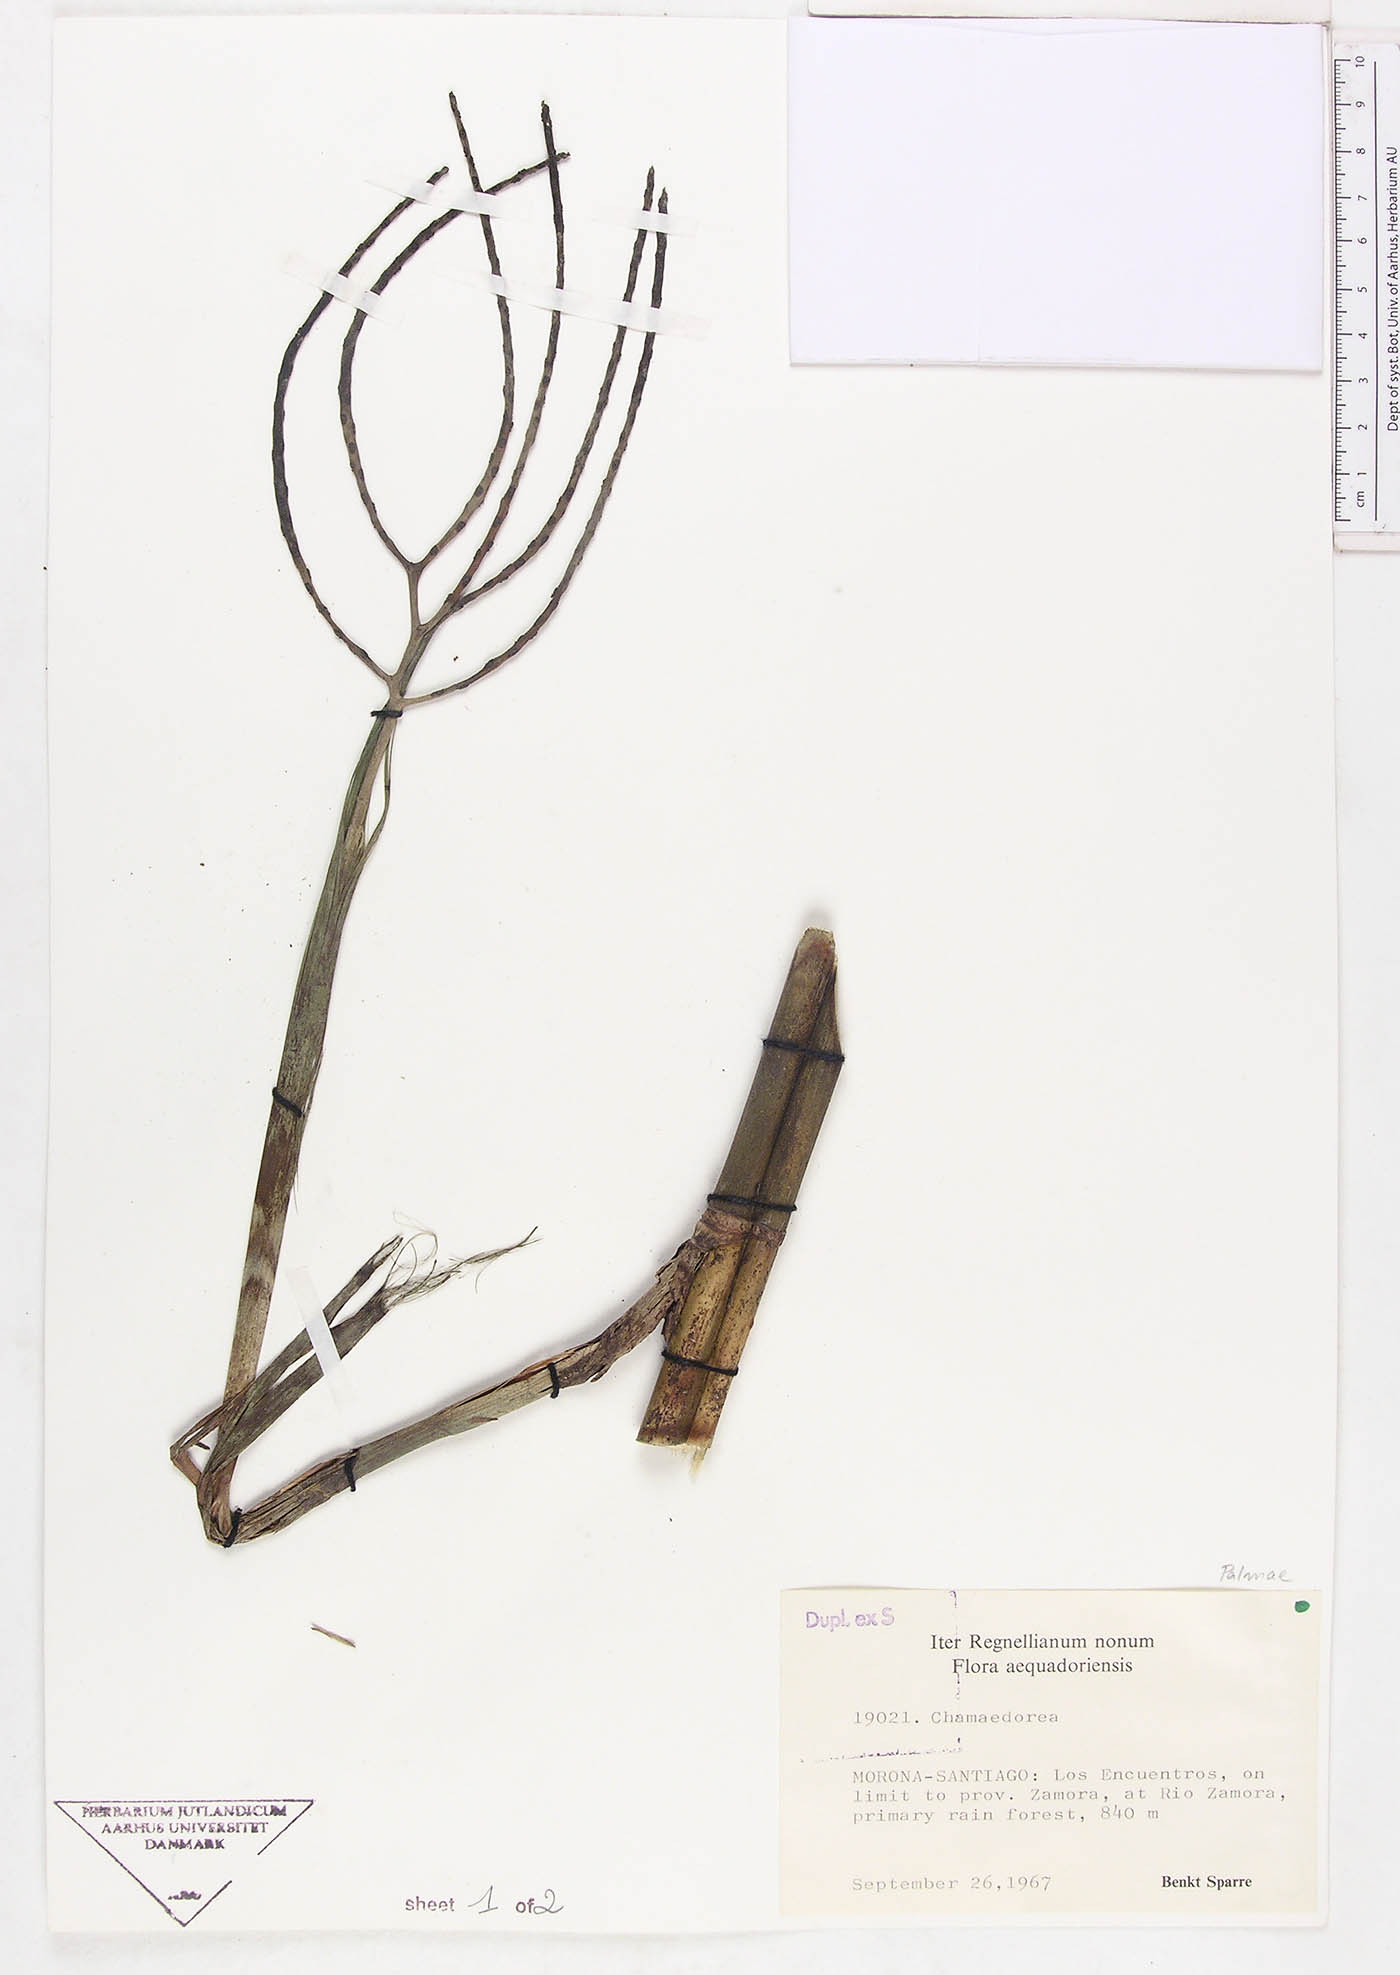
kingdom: Plantae
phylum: Tracheophyta
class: Liliopsida
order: Arecales
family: Arecaceae
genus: Chamaedorea
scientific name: Chamaedorea
